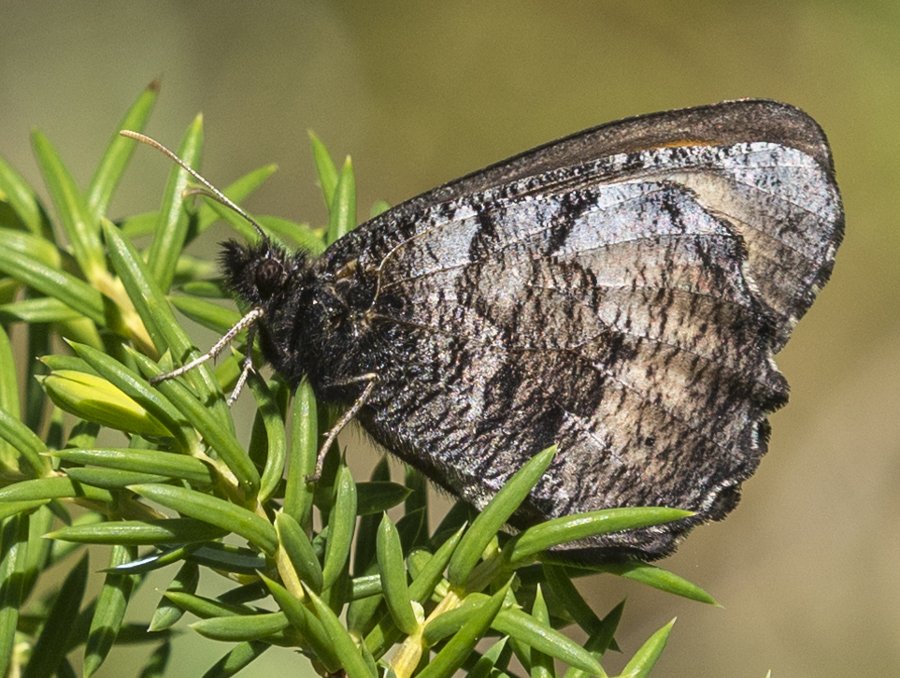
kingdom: Animalia
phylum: Arthropoda
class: Insecta
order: Lepidoptera
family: Nymphalidae
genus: Oeneis
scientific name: Oeneis macounii
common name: Macoun's Arctic
